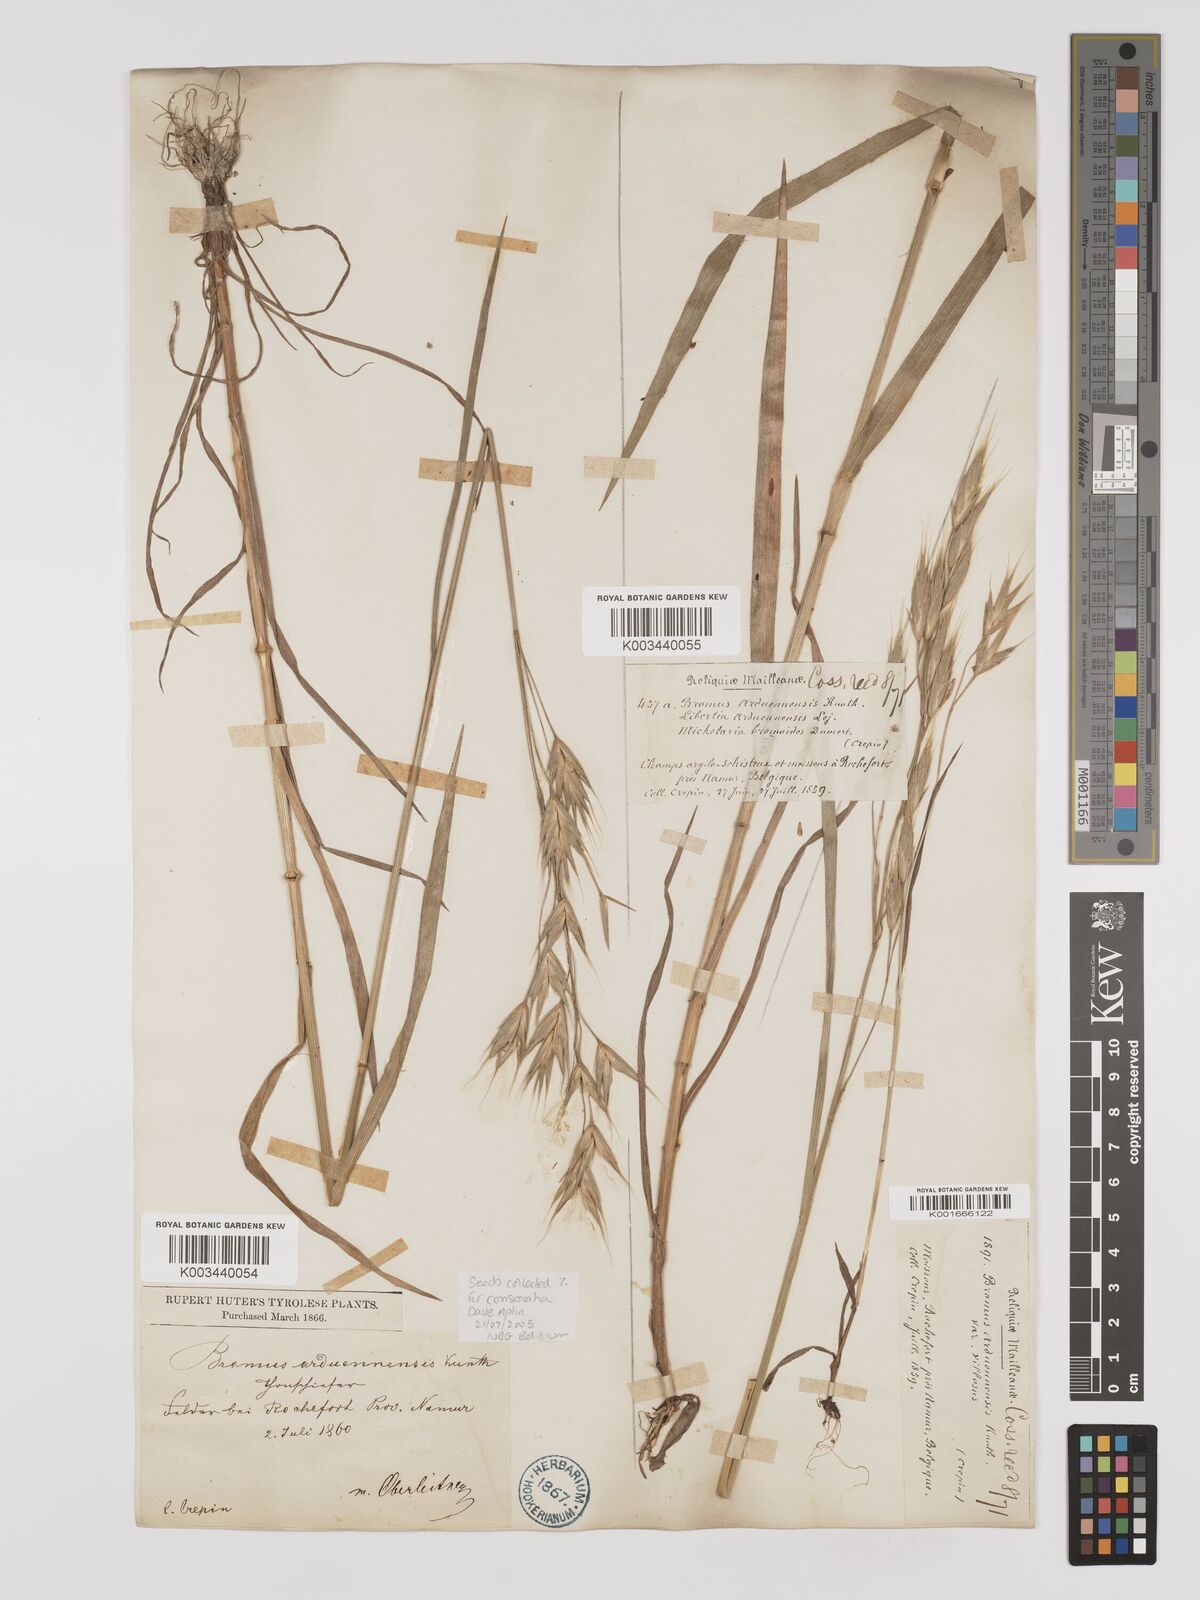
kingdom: Plantae
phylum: Tracheophyta
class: Liliopsida
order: Poales
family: Poaceae
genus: Bromus
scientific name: Bromus bromoideus
